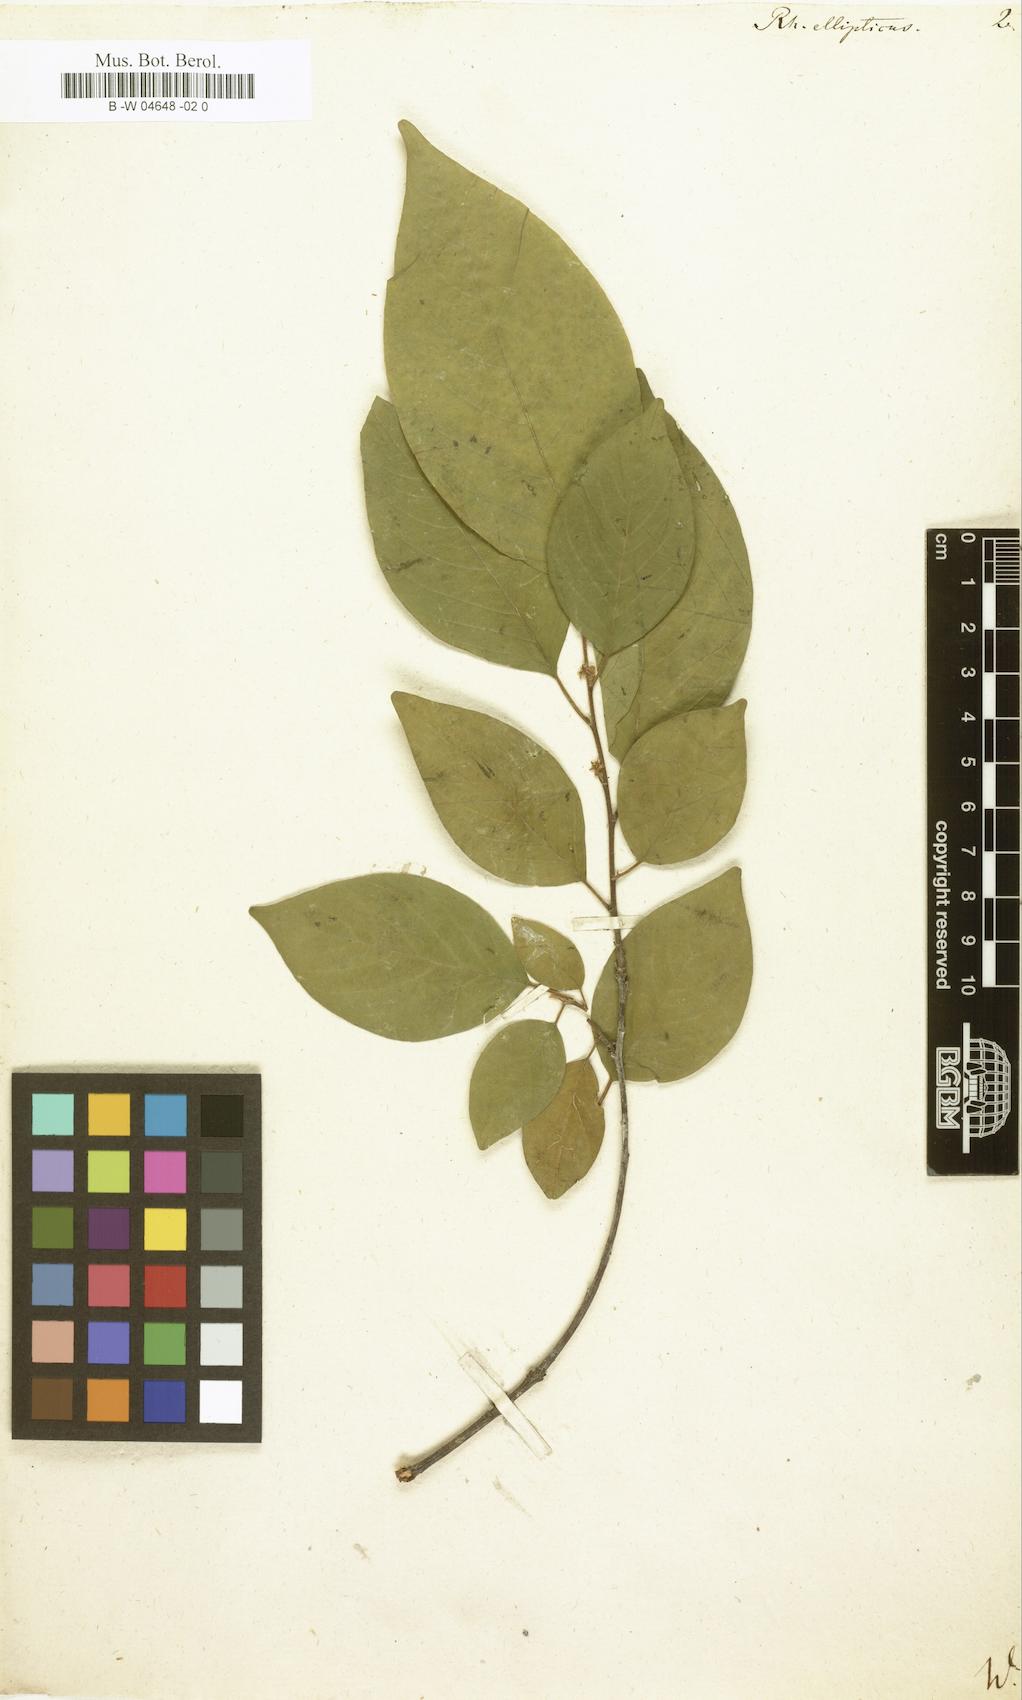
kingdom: Plantae
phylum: Tracheophyta
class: Magnoliopsida
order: Rosales
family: Rhamnaceae
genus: Colubrina
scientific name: Colubrina elliptica
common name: Soldierwood
